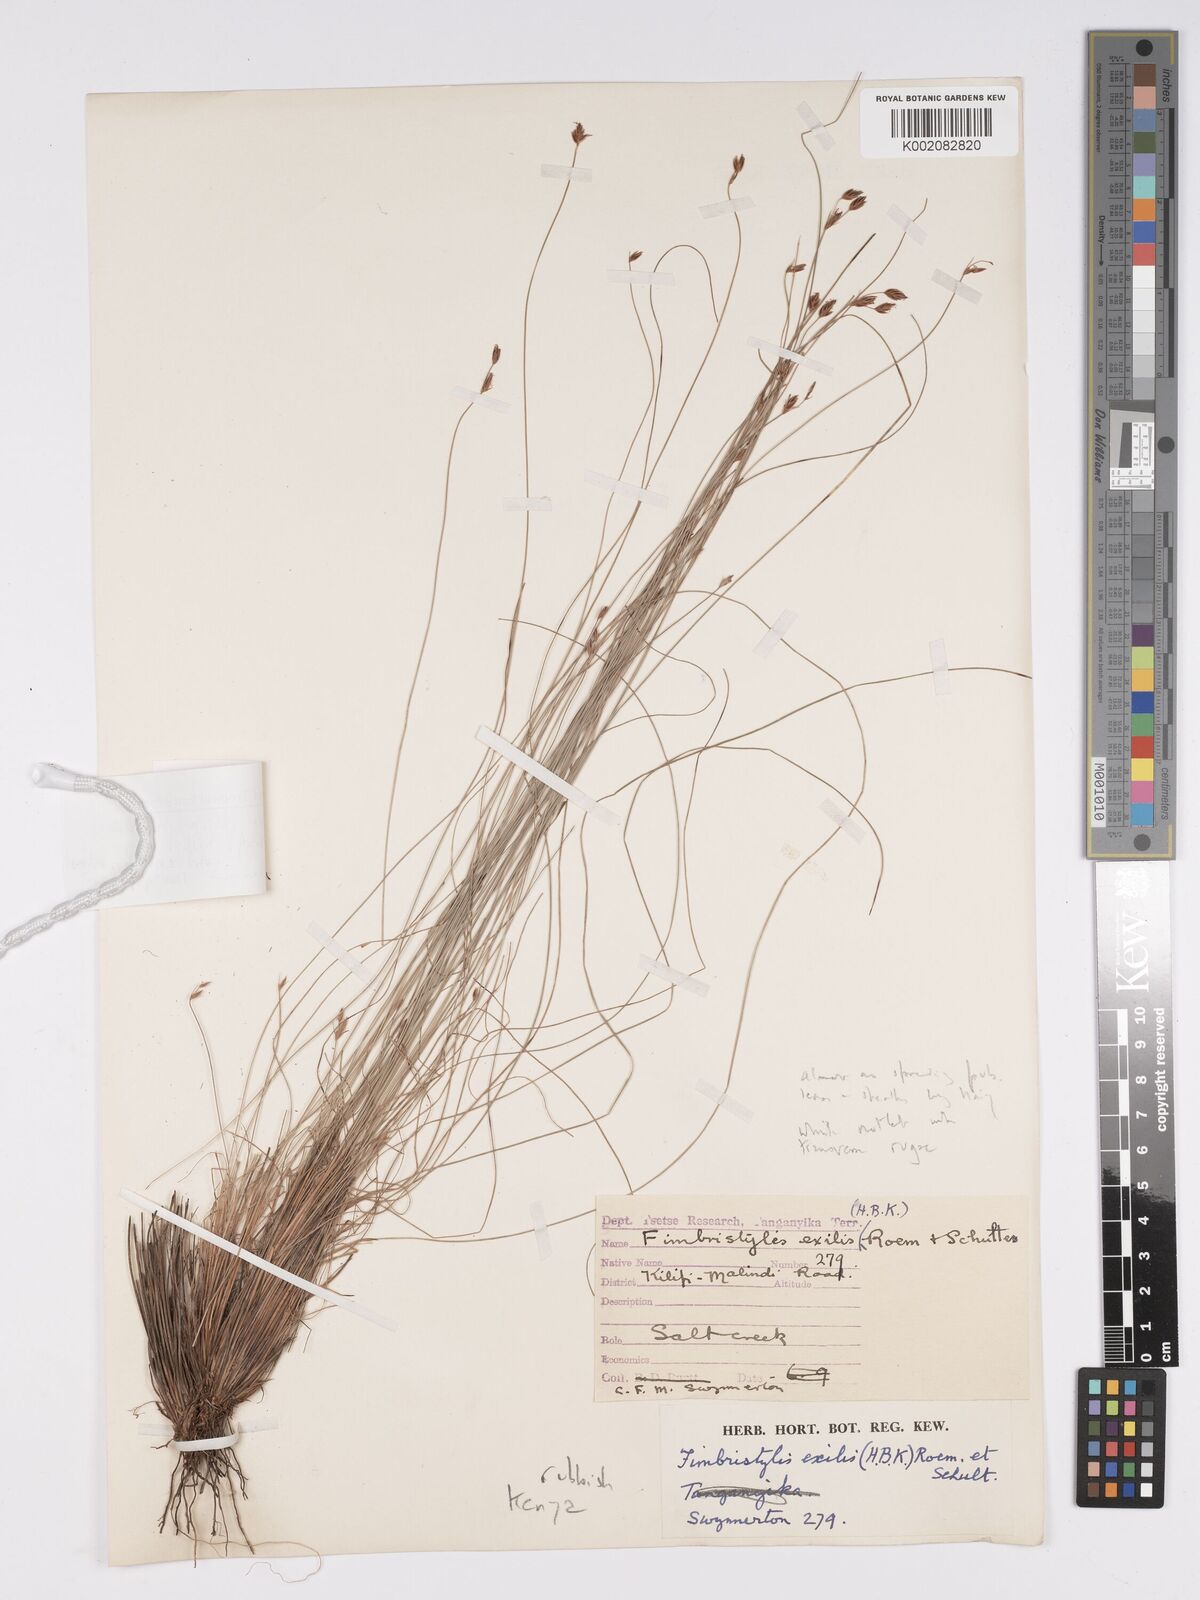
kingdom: Plantae
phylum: Tracheophyta
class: Liliopsida
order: Poales
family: Cyperaceae
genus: Bulbostylis
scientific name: Bulbostylis hispidula
